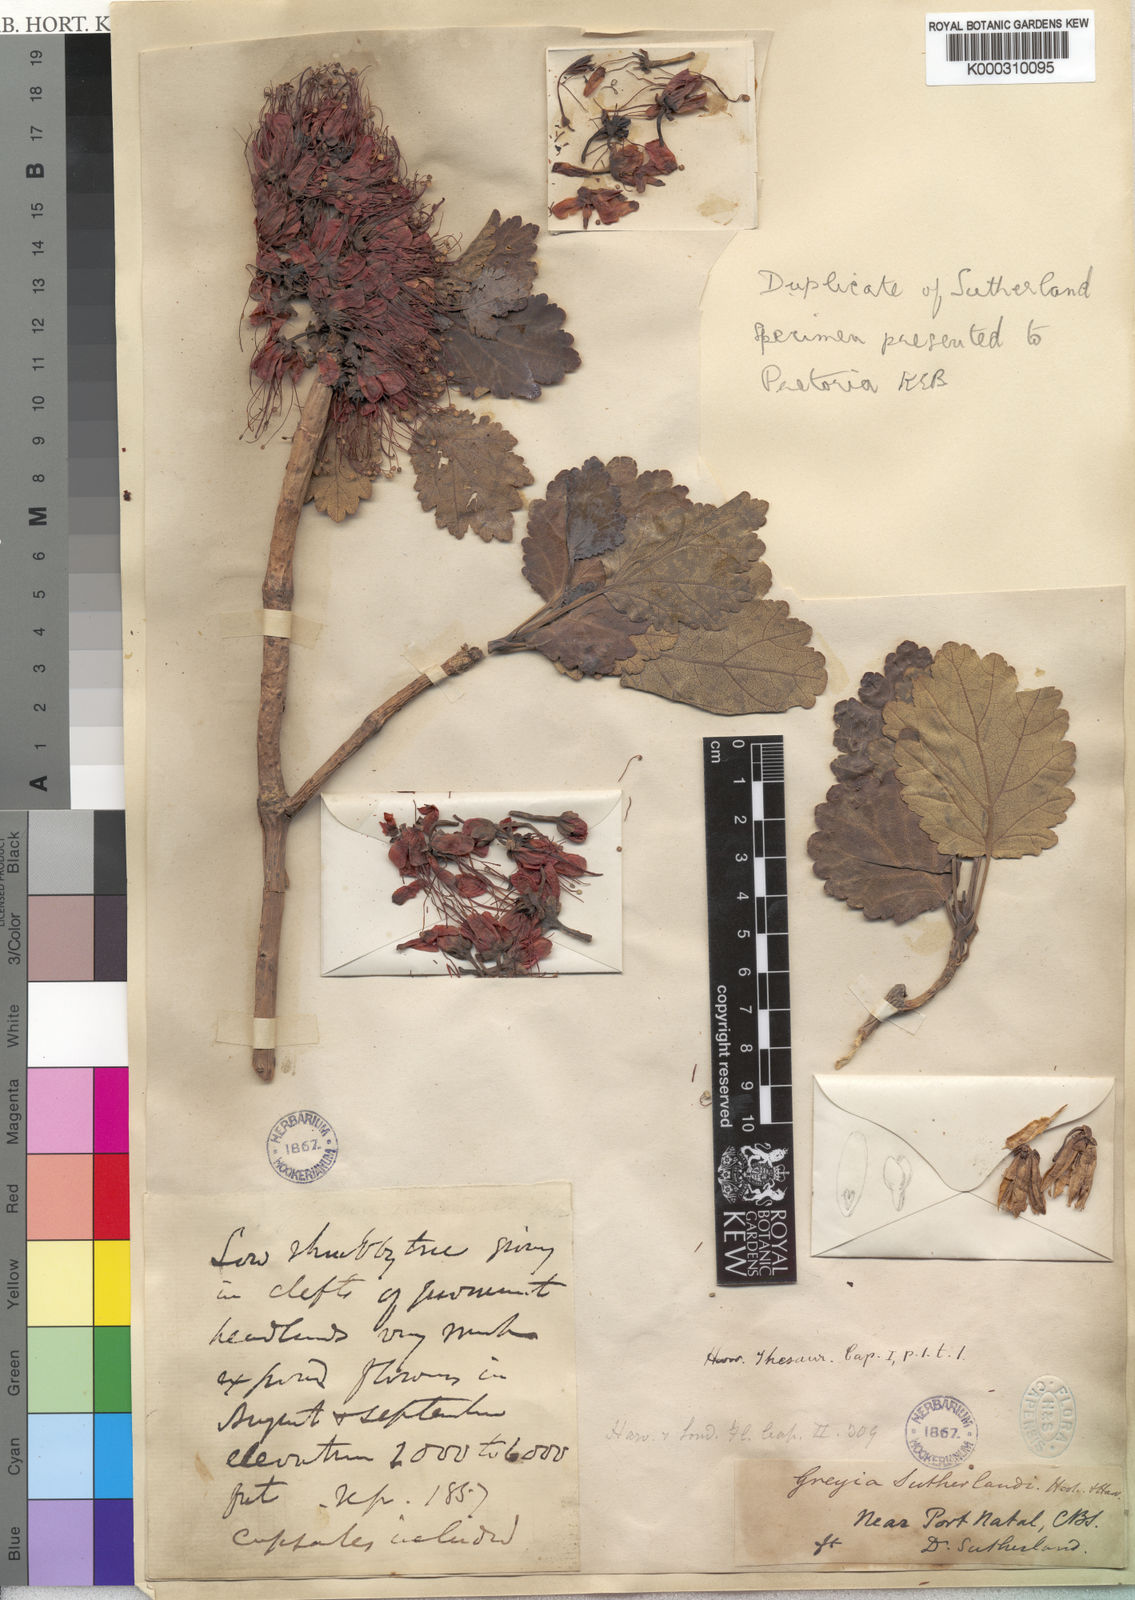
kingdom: Plantae
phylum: Tracheophyta
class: Magnoliopsida
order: Geraniales
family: Francoaceae
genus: Greyia
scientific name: Greyia sutherlandii
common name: Glossy bottlebrush
